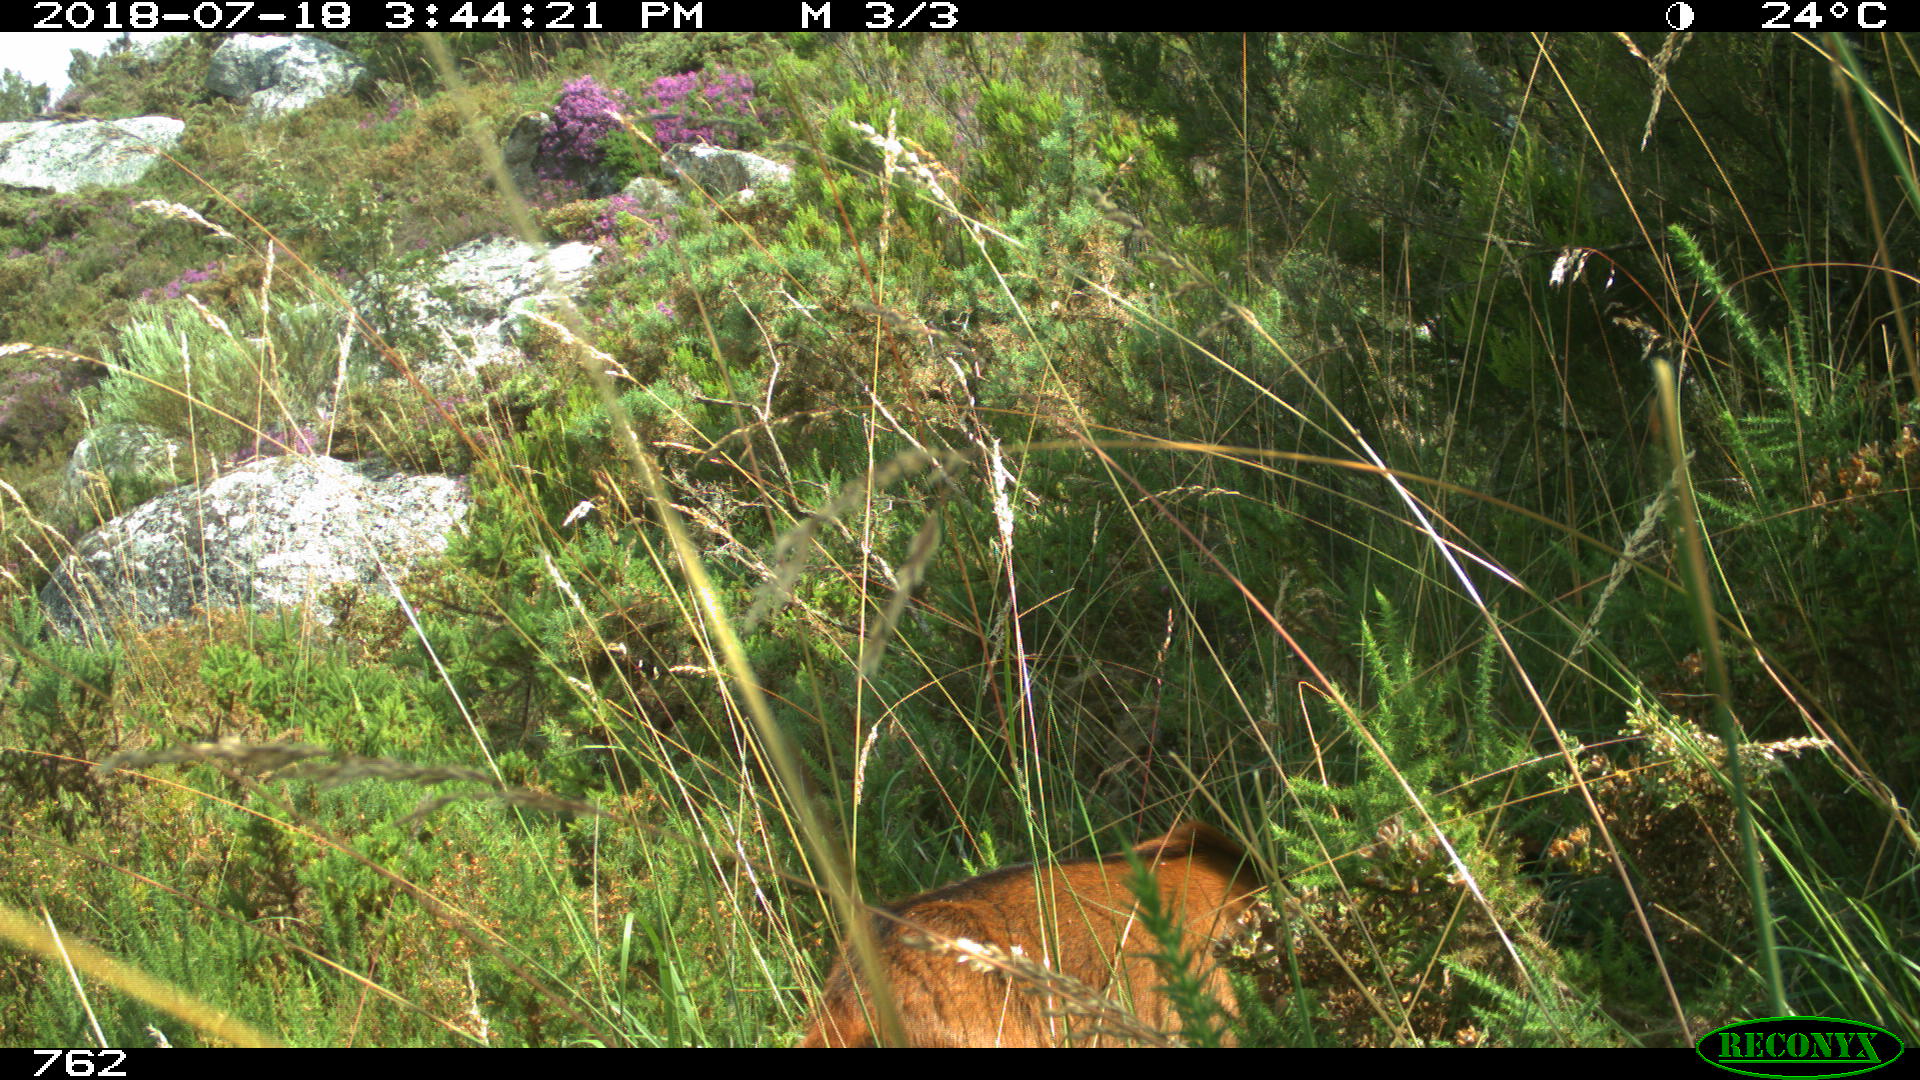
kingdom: Animalia
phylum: Chordata
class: Mammalia
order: Artiodactyla
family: Bovidae
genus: Capra
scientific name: Capra hircus
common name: Domestic goat
